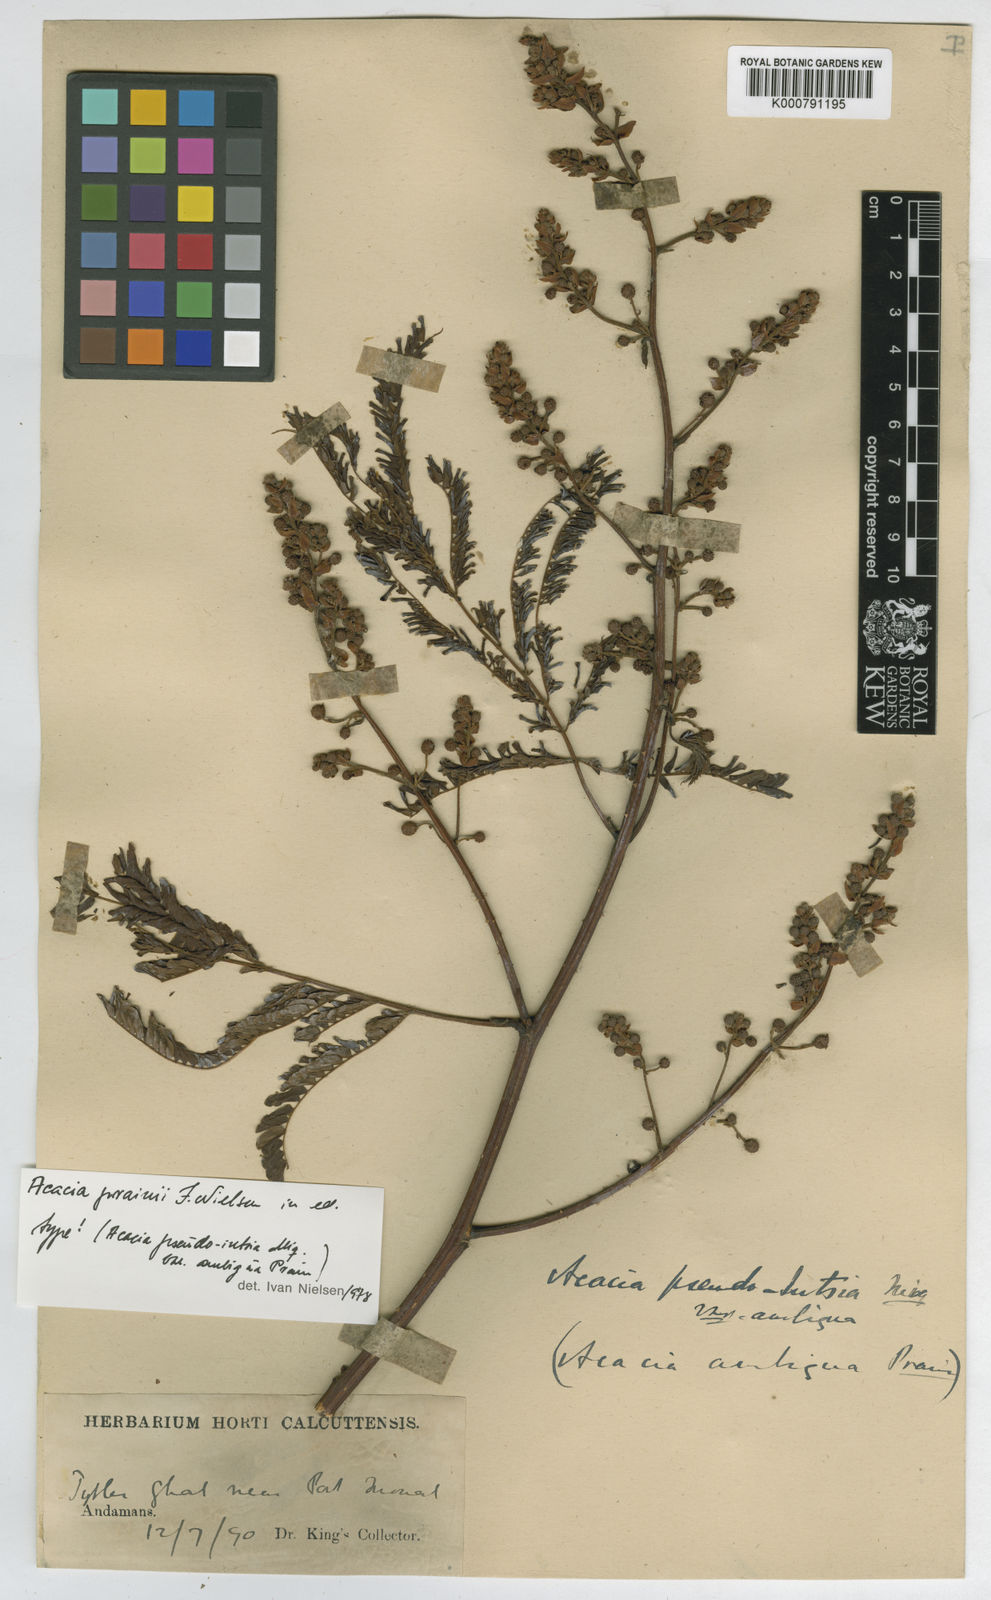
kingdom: Plantae
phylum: Tracheophyta
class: Magnoliopsida
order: Fabales
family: Fabaceae
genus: Acacia
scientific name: Acacia prainii
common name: Prain's wattle
